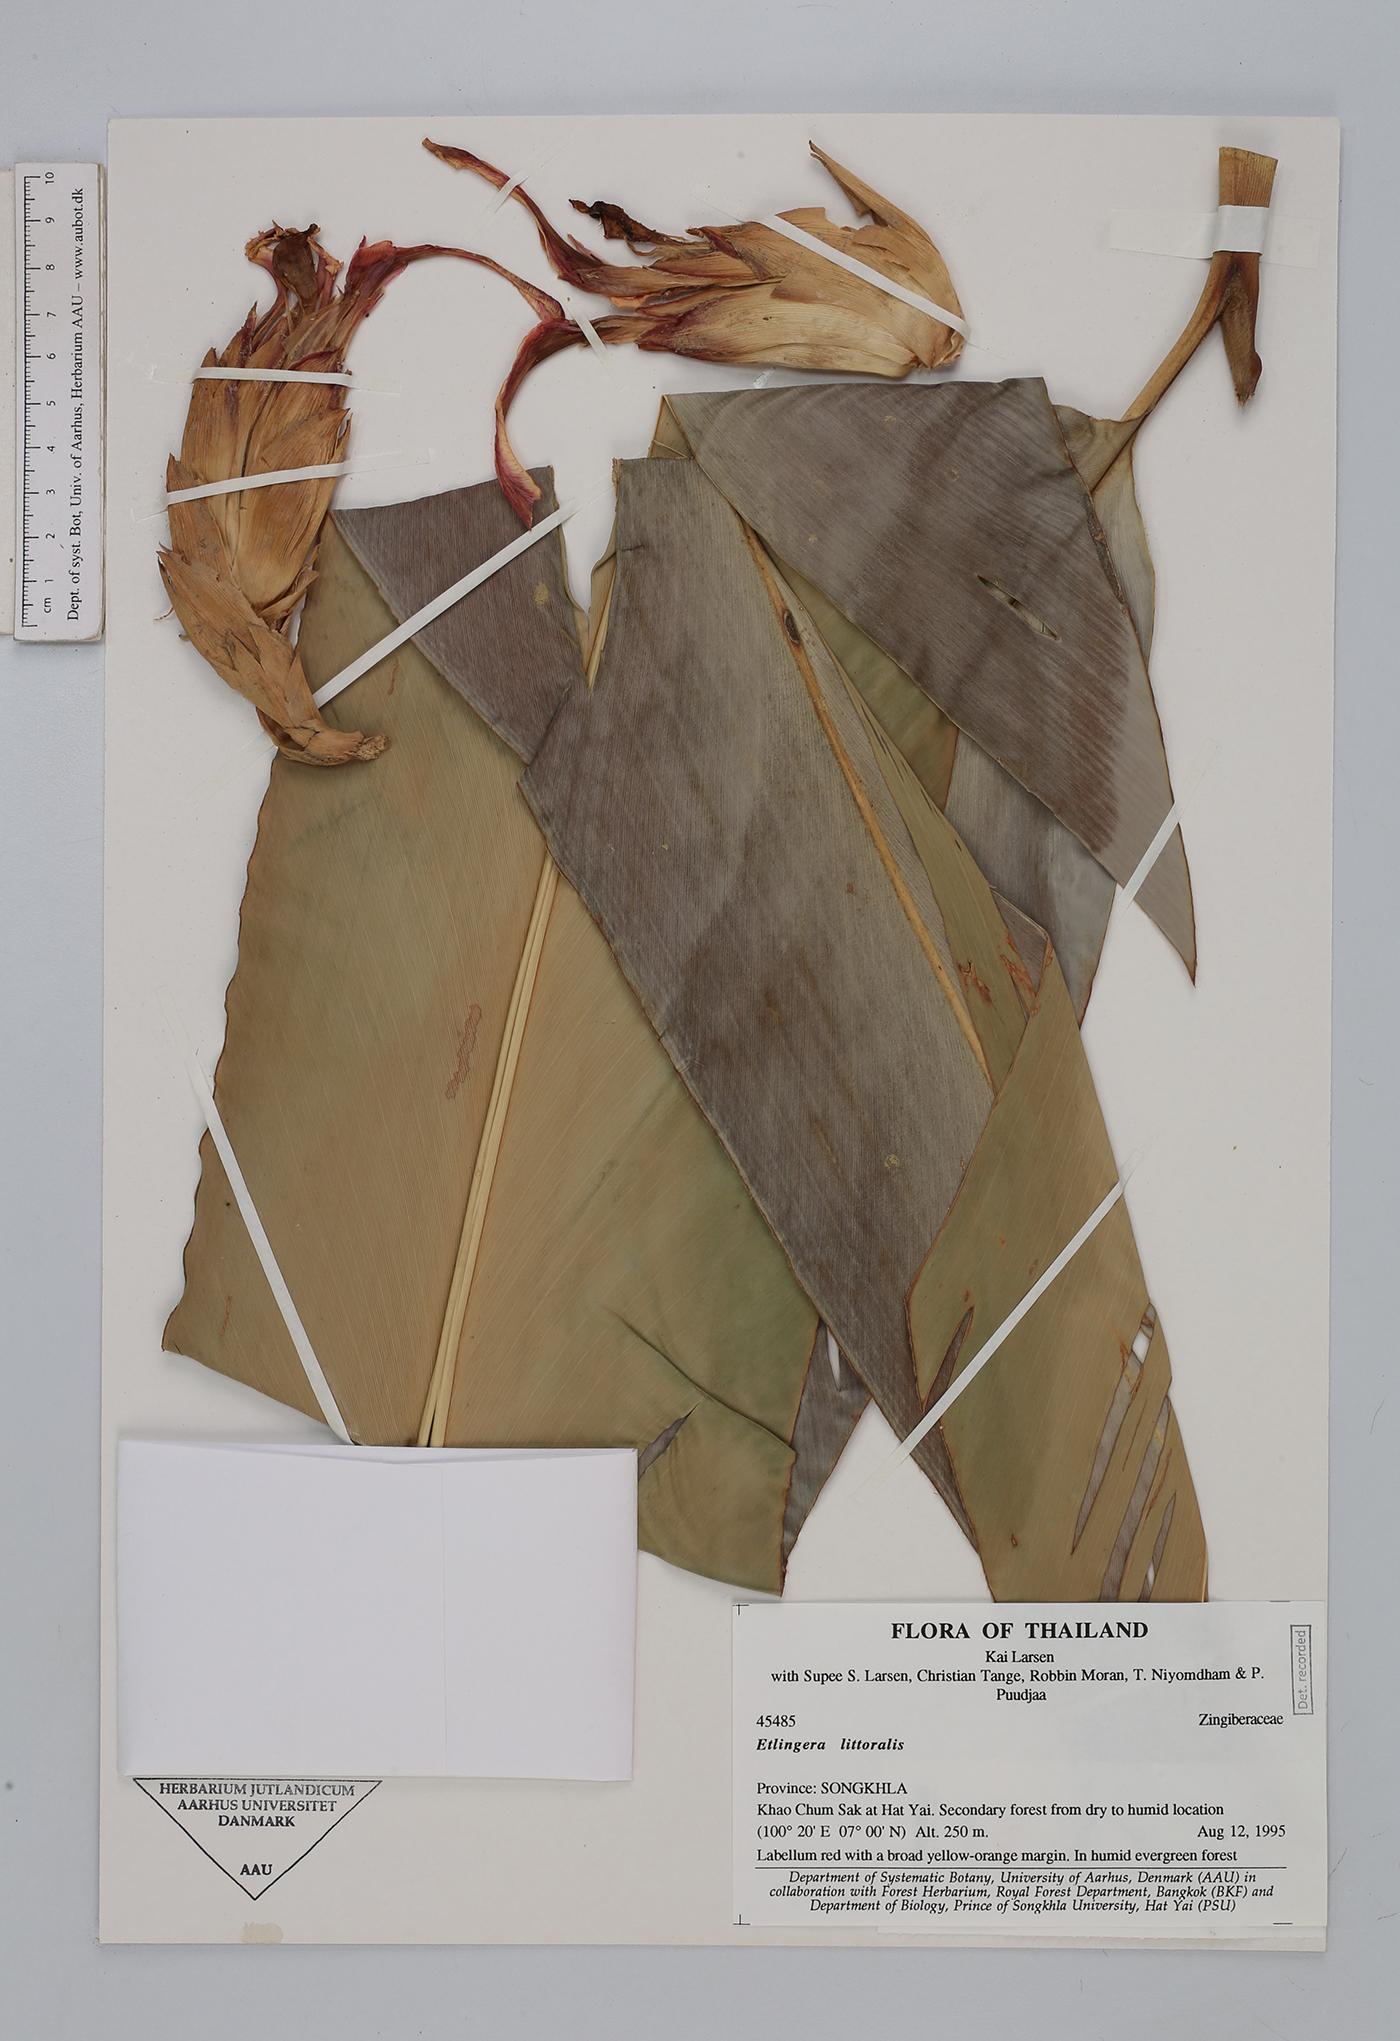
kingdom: Plantae
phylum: Tracheophyta
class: Liliopsida
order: Zingiberales
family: Zingiberaceae
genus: Etlingera
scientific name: Etlingera littoralis
